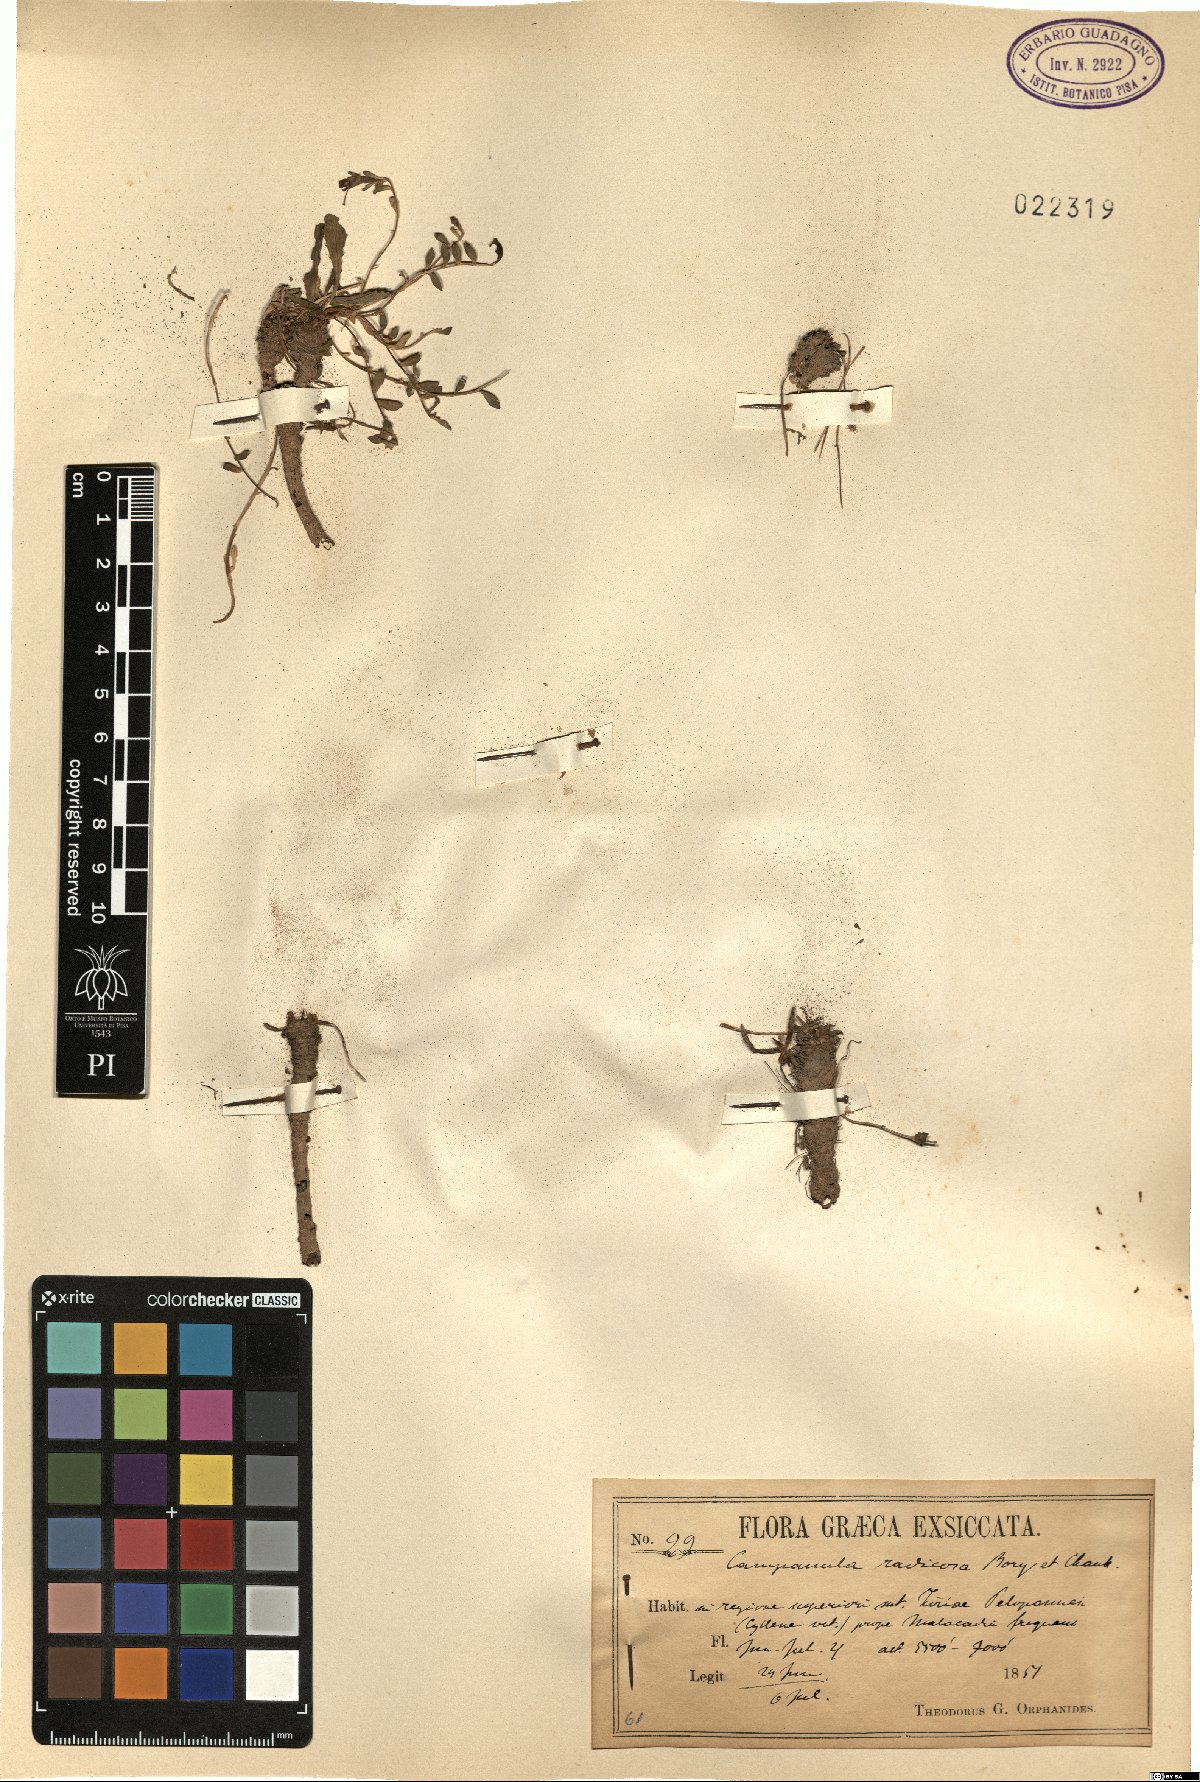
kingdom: Plantae
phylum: Tracheophyta
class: Magnoliopsida
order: Asterales
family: Campanulaceae
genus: Campanula
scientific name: Campanula radicosa
